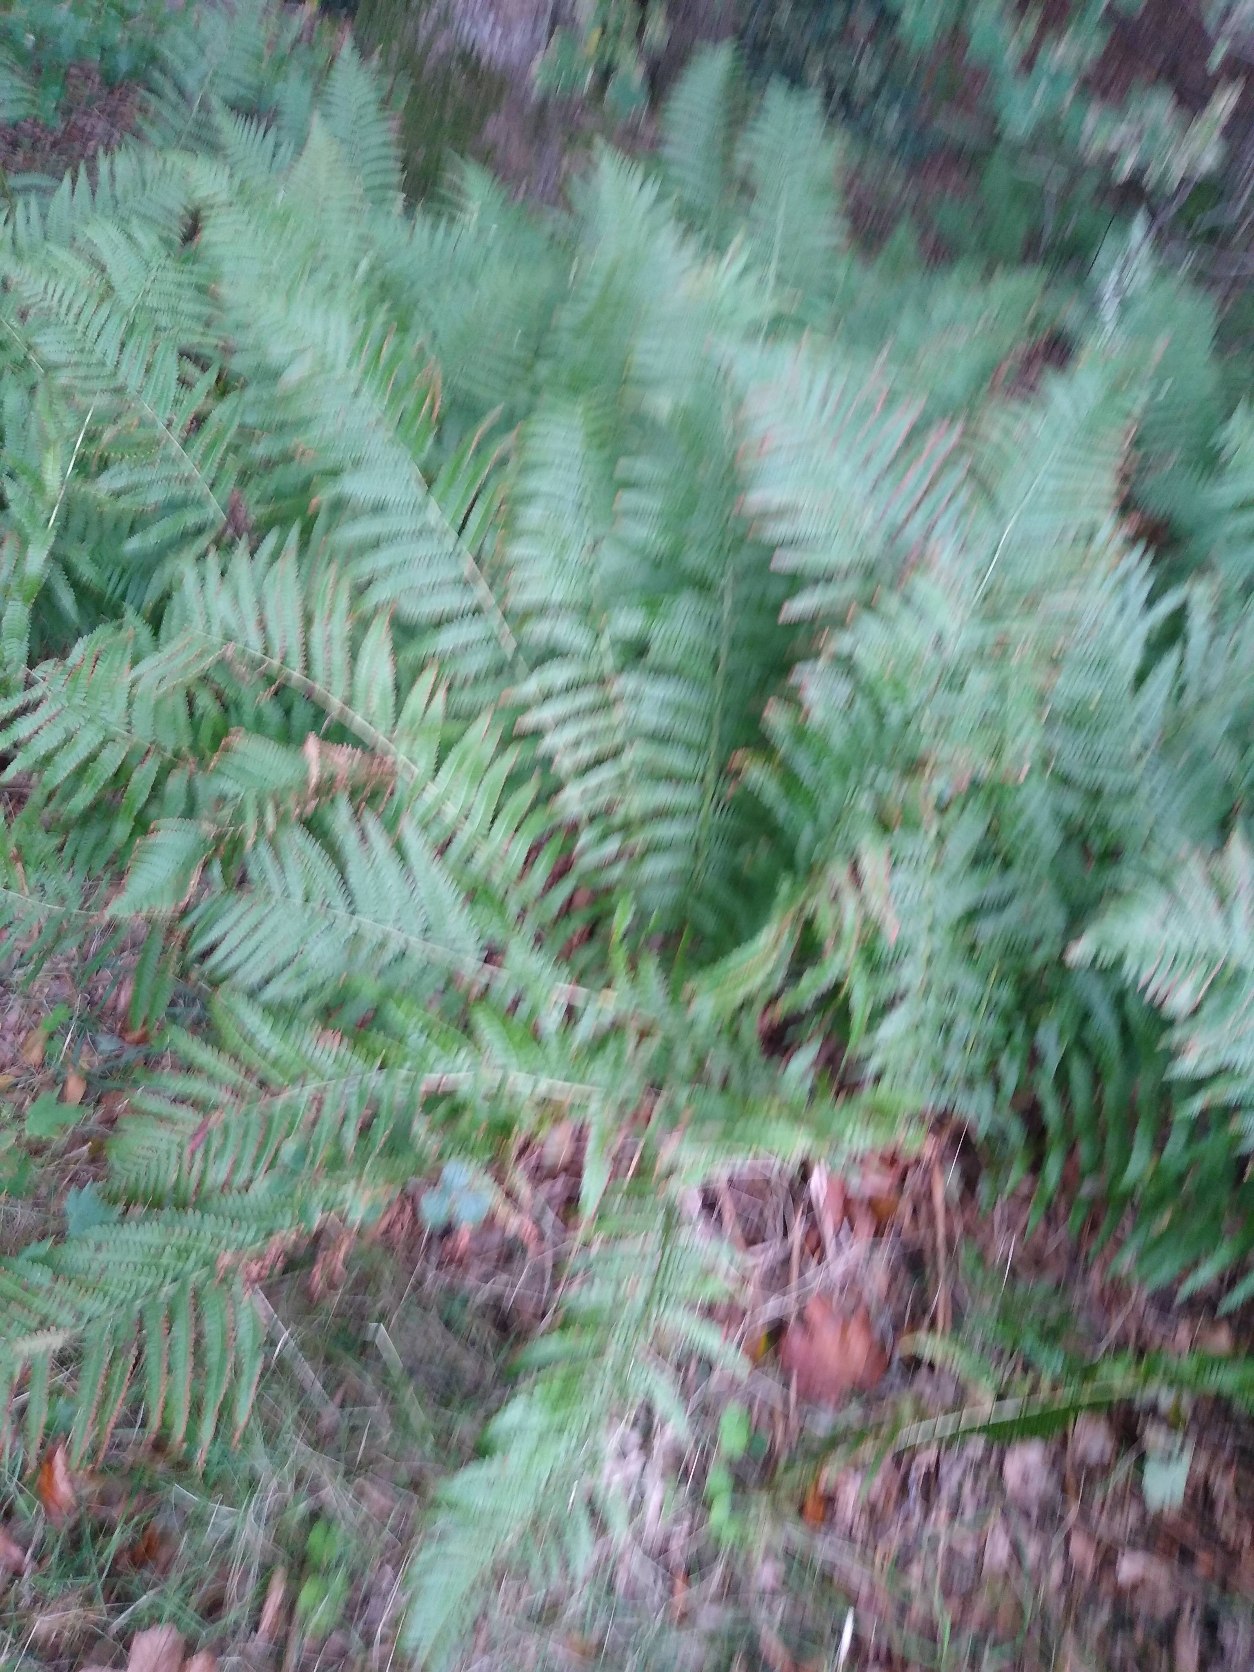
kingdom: Plantae
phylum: Tracheophyta
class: Polypodiopsida
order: Polypodiales
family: Dryopteridaceae
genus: Dryopteris
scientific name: Dryopteris filix-mas
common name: Almindelig mangeløv
